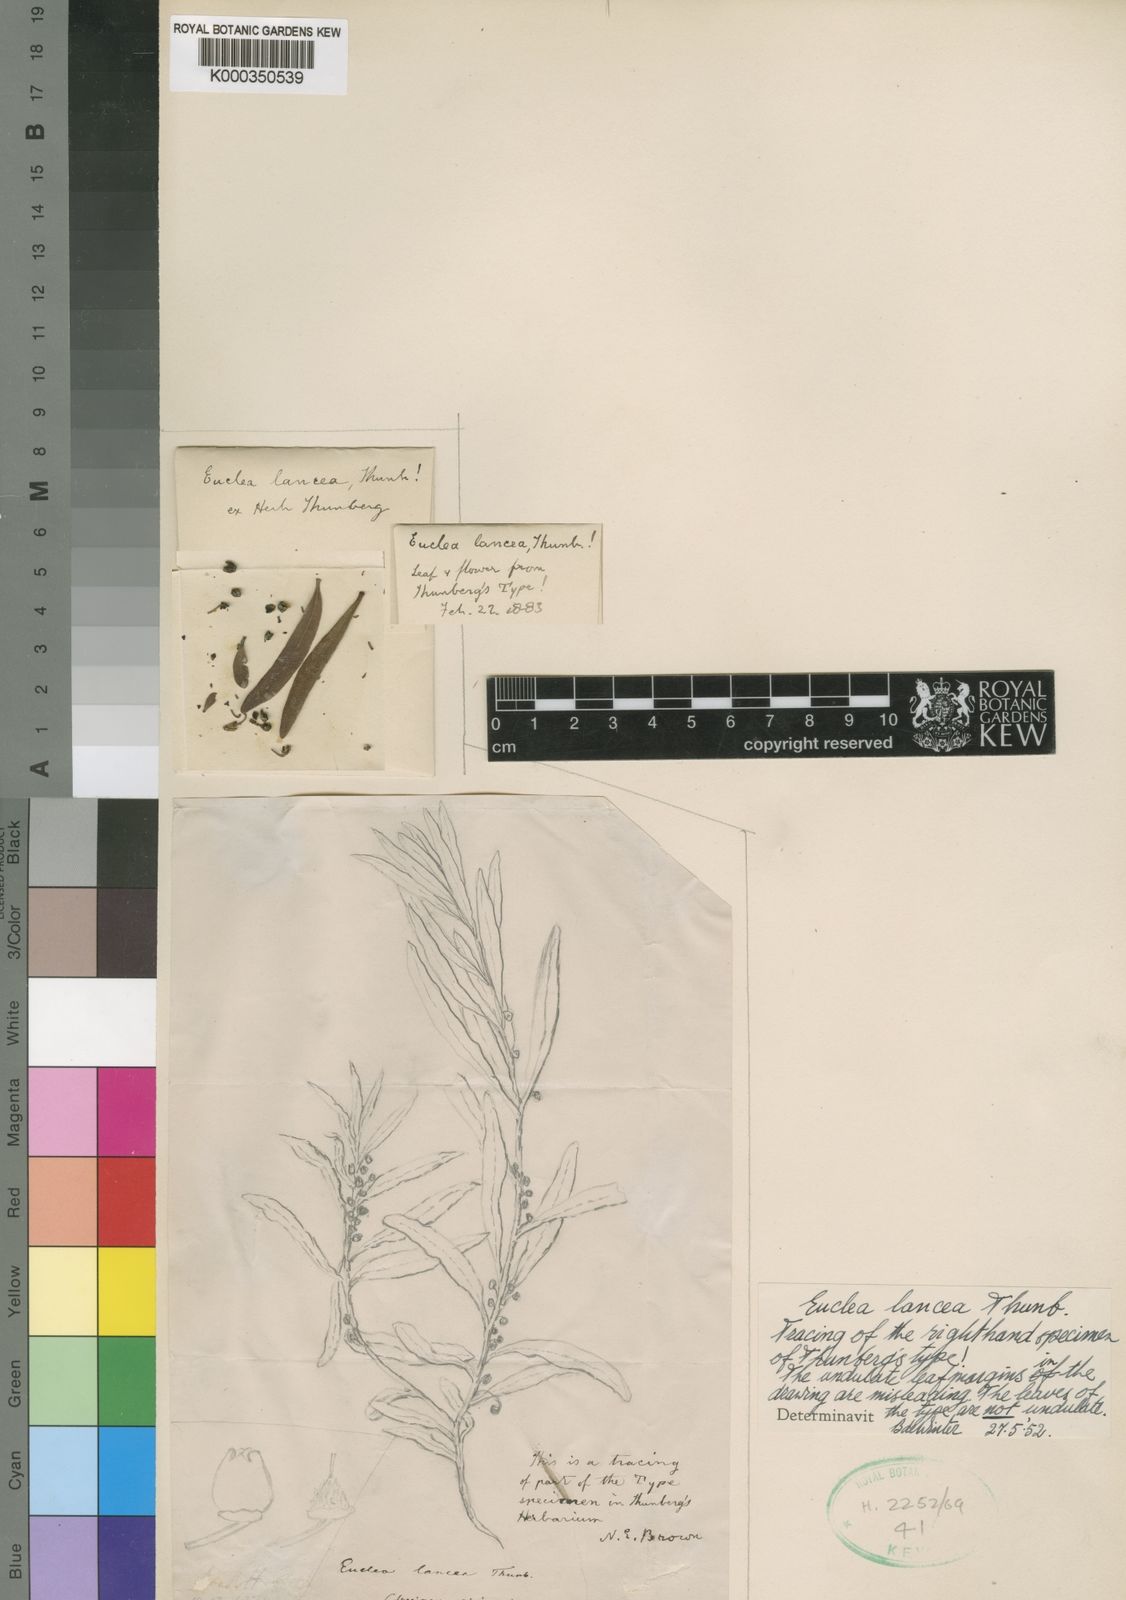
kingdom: Plantae
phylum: Tracheophyta
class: Magnoliopsida
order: Ericales
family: Ebenaceae
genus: Euclea
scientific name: Euclea lancea
